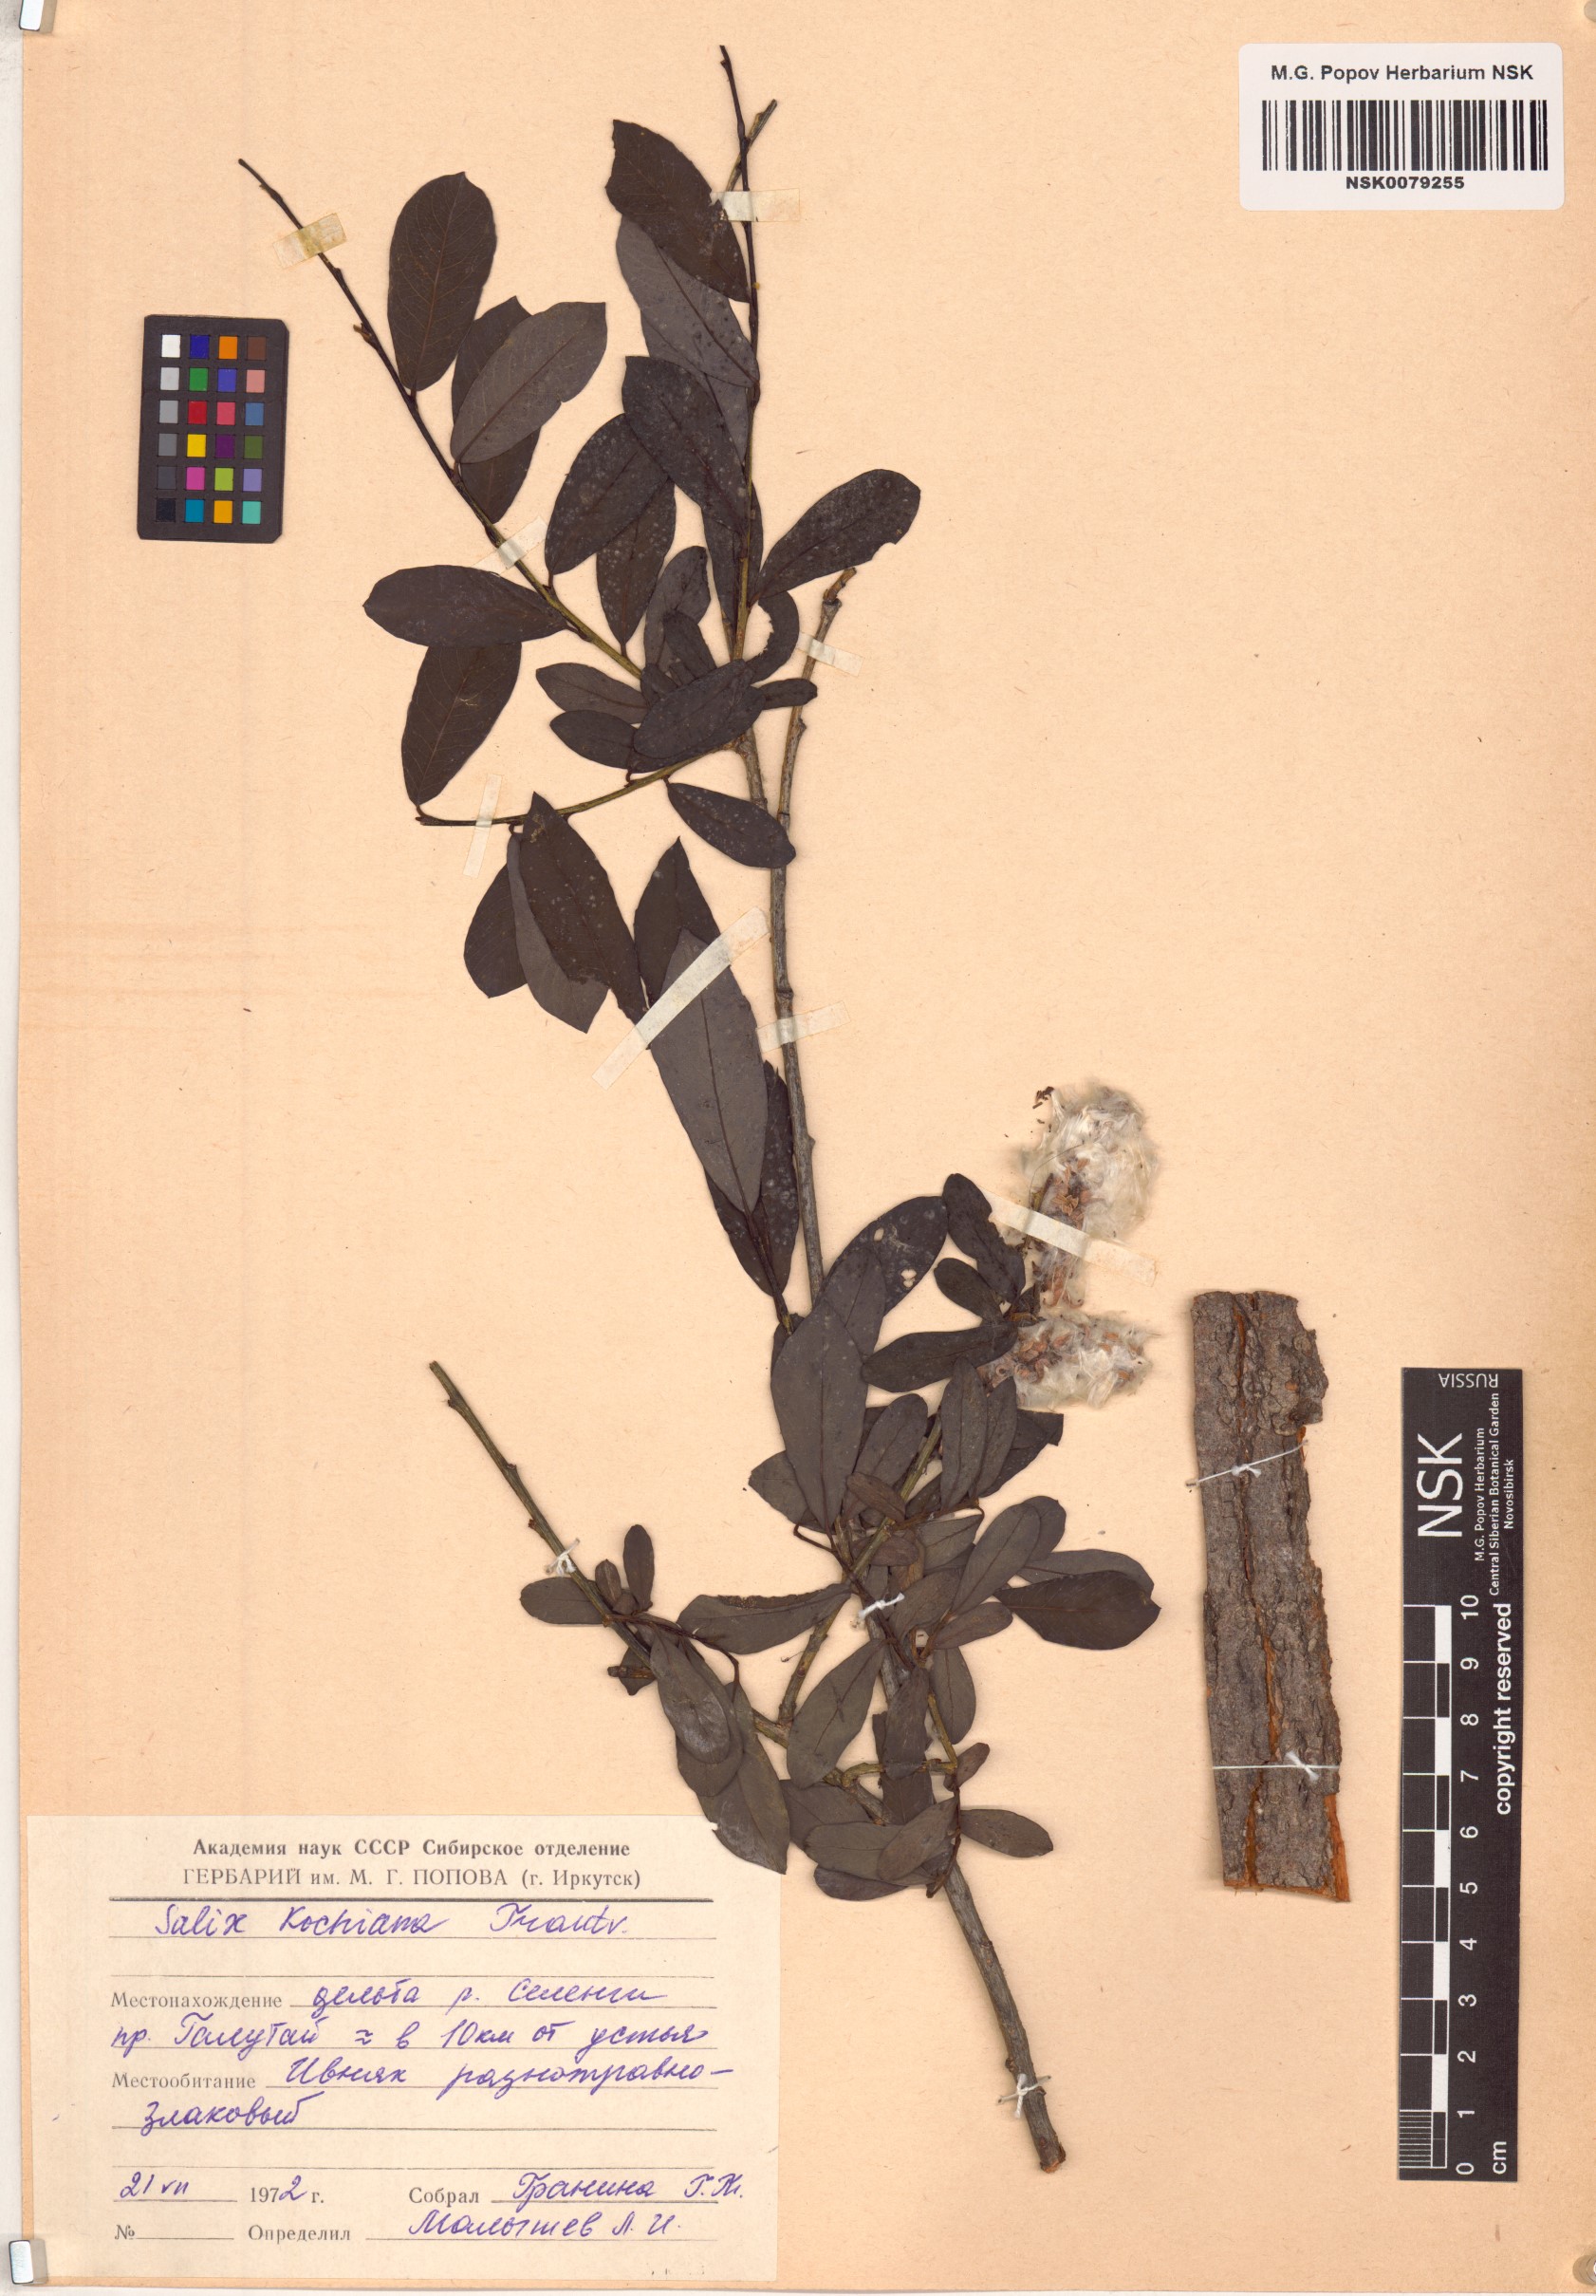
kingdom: Plantae
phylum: Tracheophyta
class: Magnoliopsida
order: Malpighiales
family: Salicaceae
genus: Salix
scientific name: Salix kochiana
